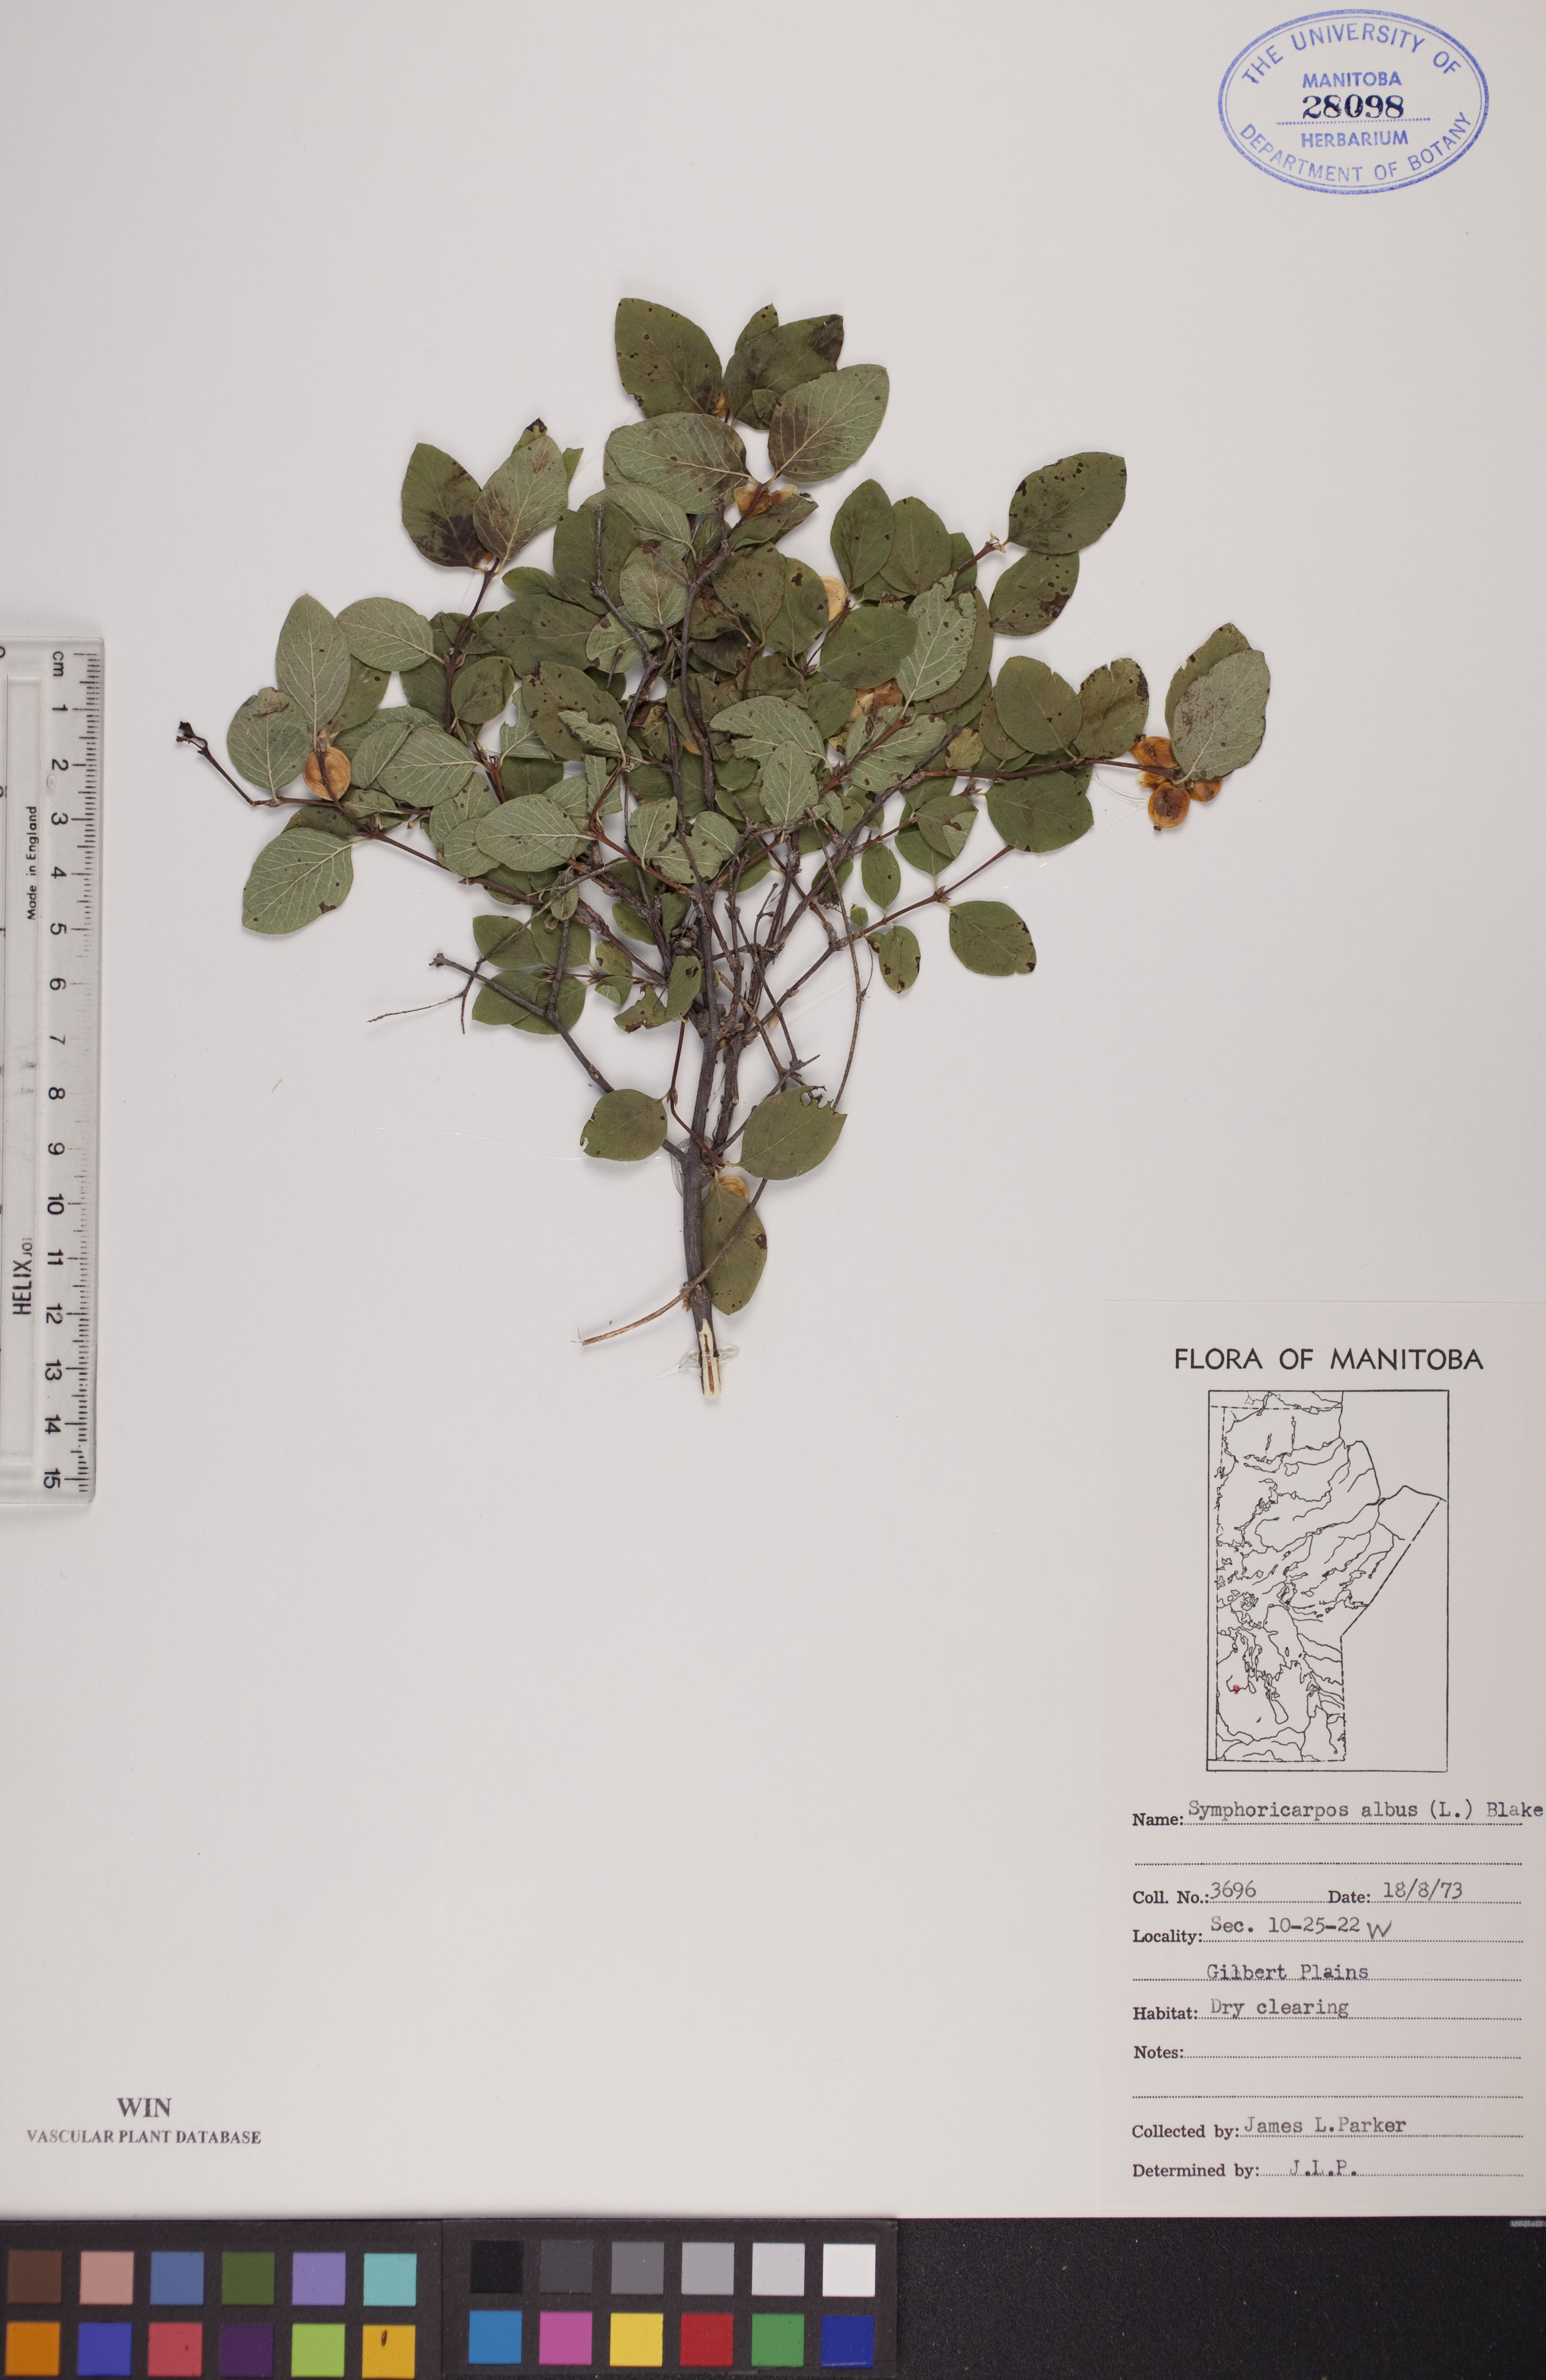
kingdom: Plantae
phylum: Tracheophyta
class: Magnoliopsida
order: Dipsacales
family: Caprifoliaceae
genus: Symphoricarpos
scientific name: Symphoricarpos albus
